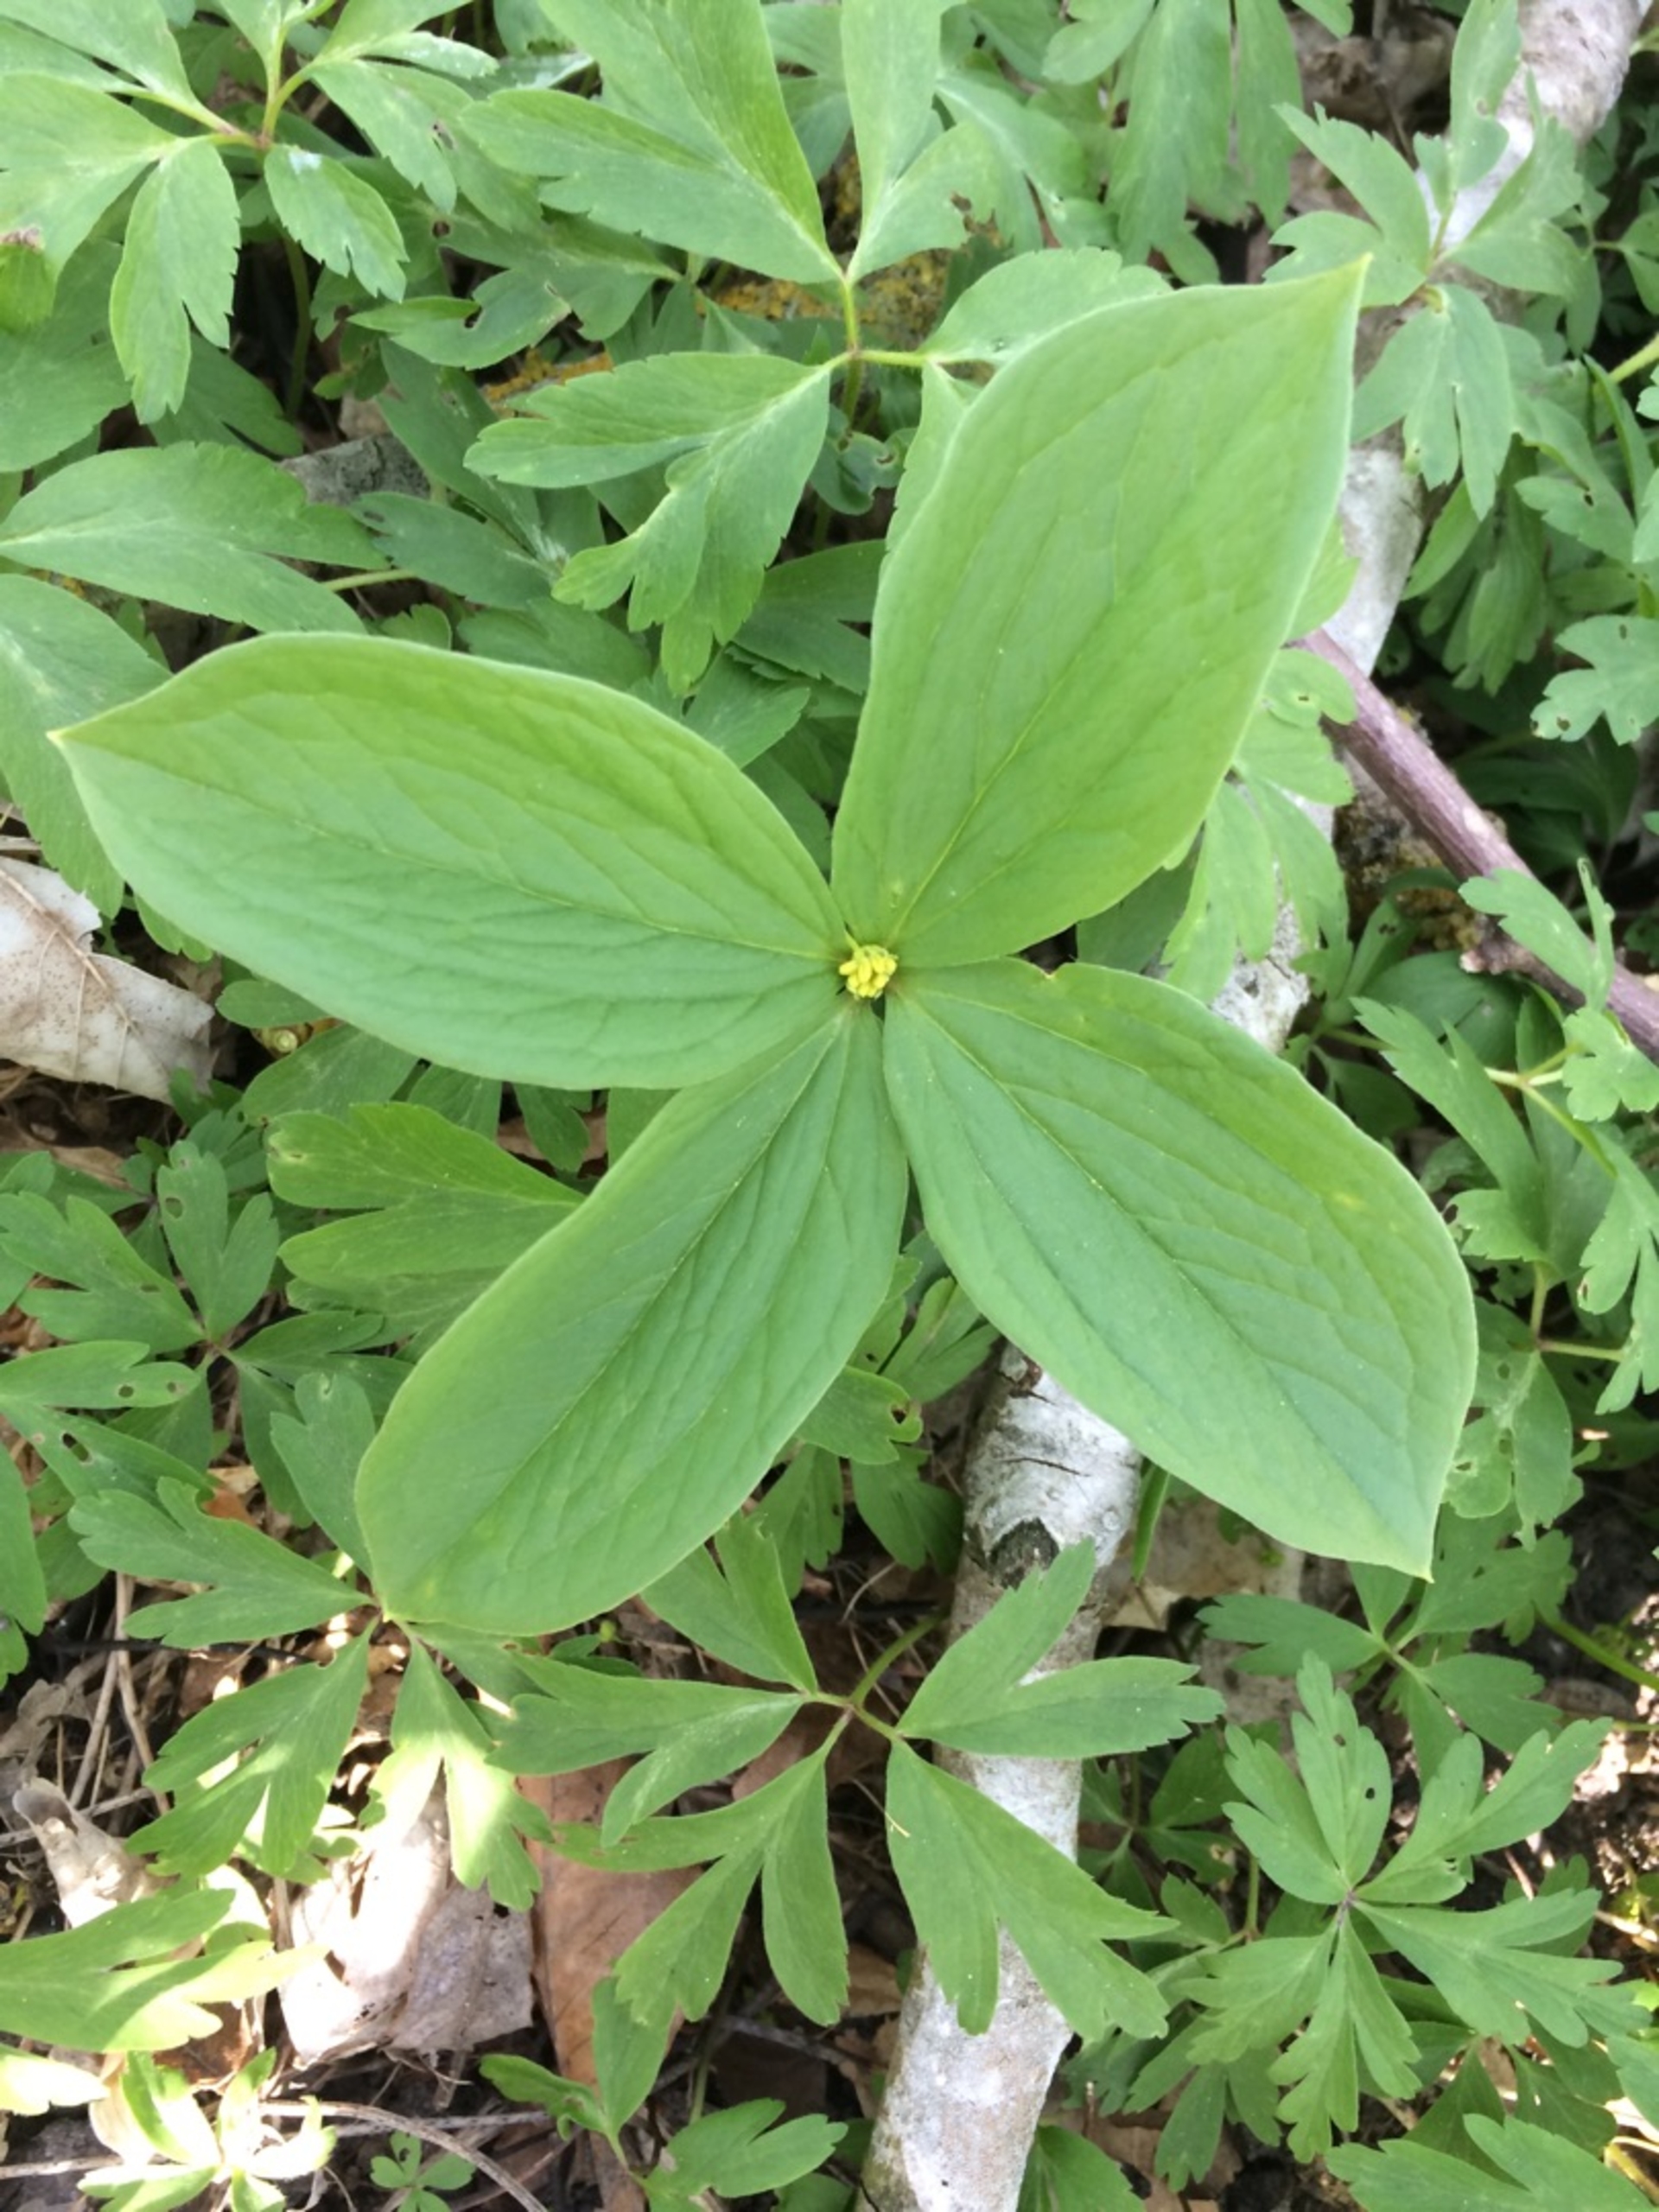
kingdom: Plantae
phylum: Tracheophyta
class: Liliopsida
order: Liliales
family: Melanthiaceae
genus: Paris
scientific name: Paris quadrifolia
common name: Firblad
